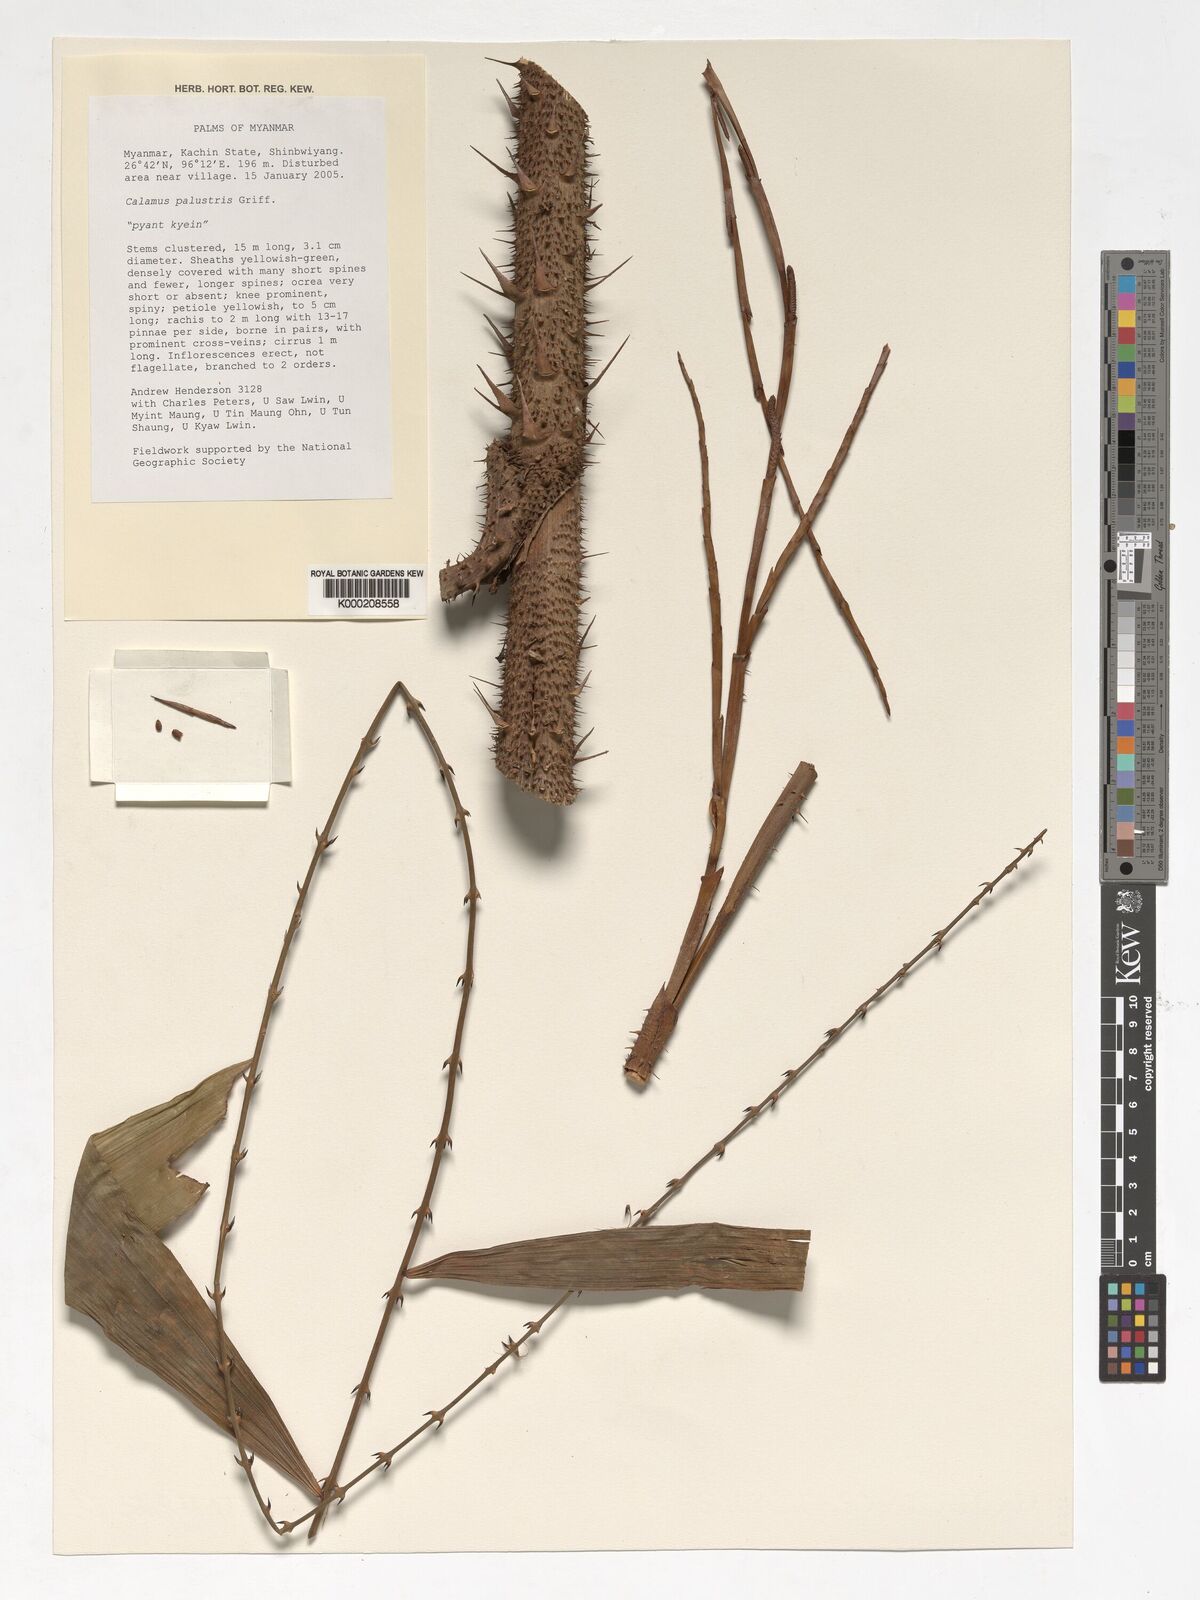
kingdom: Plantae
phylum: Tracheophyta
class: Liliopsida
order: Arecales
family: Arecaceae
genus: Calamus
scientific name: Calamus latifolius
